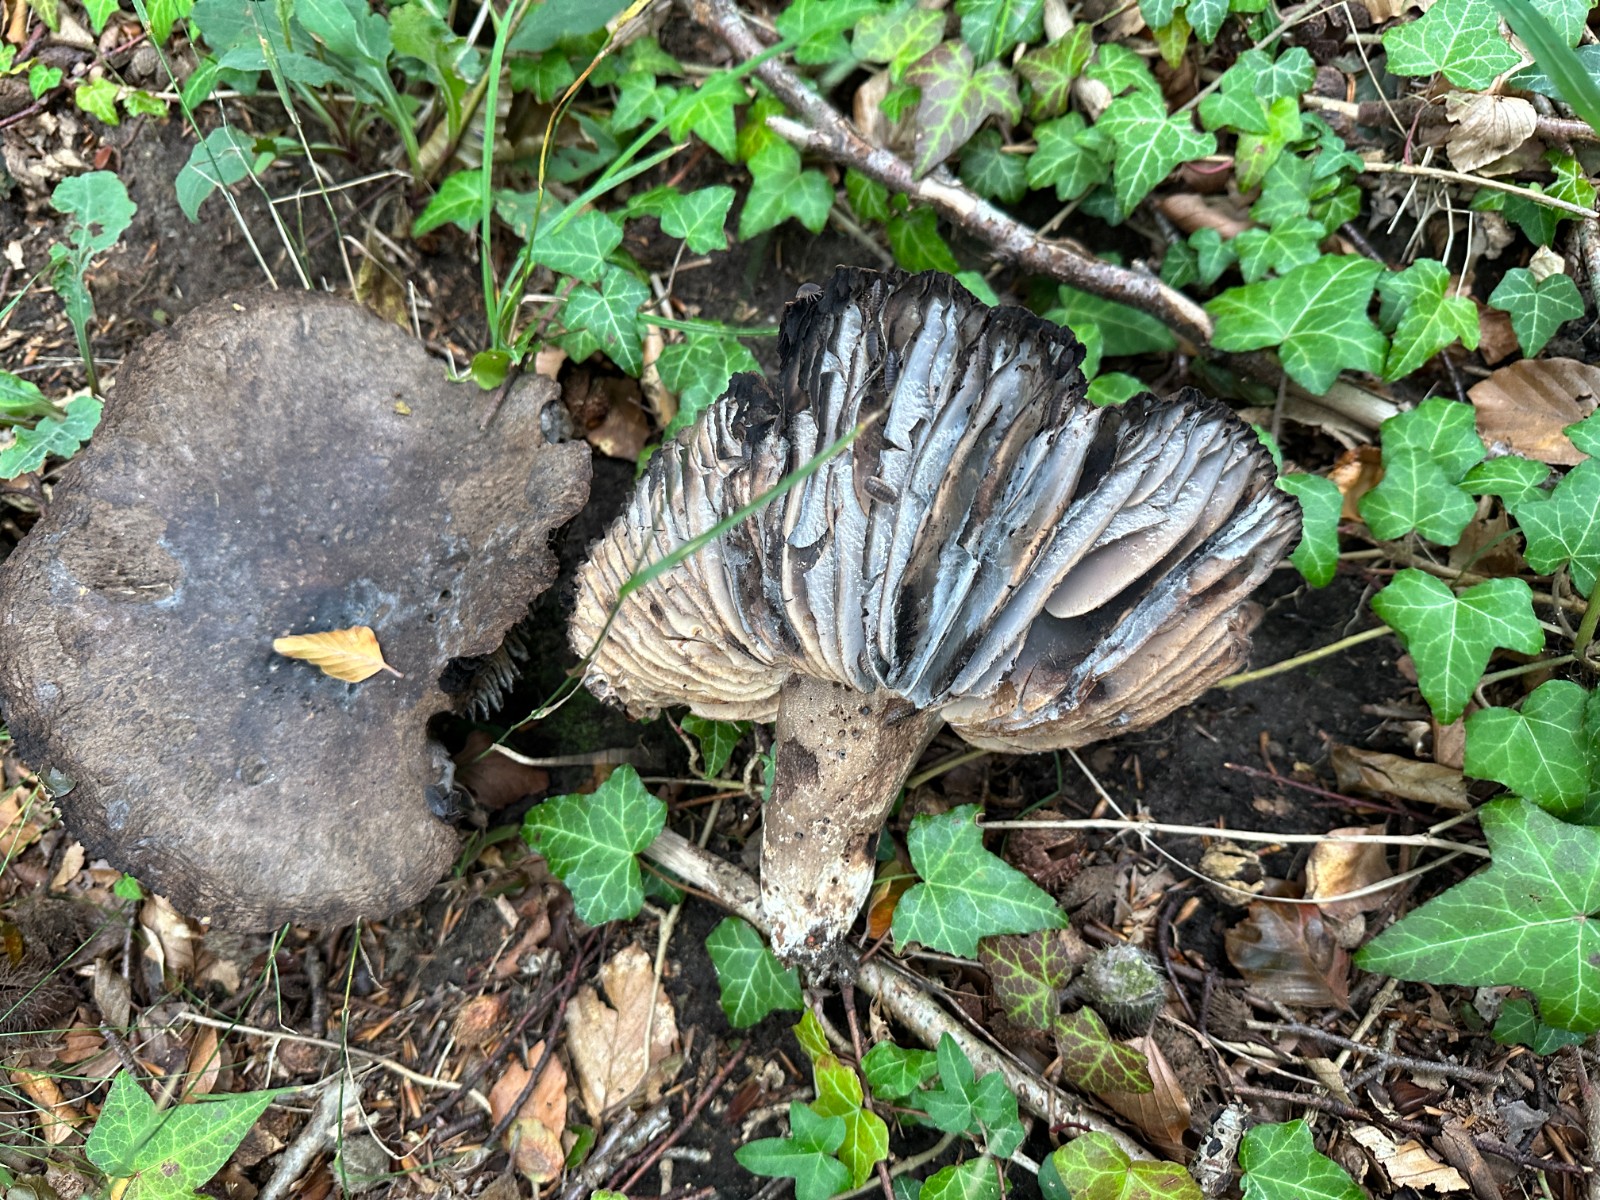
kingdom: Fungi
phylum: Basidiomycota
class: Agaricomycetes
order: Russulales
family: Russulaceae
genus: Russula
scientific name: Russula adusta
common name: sværtende skørhat
